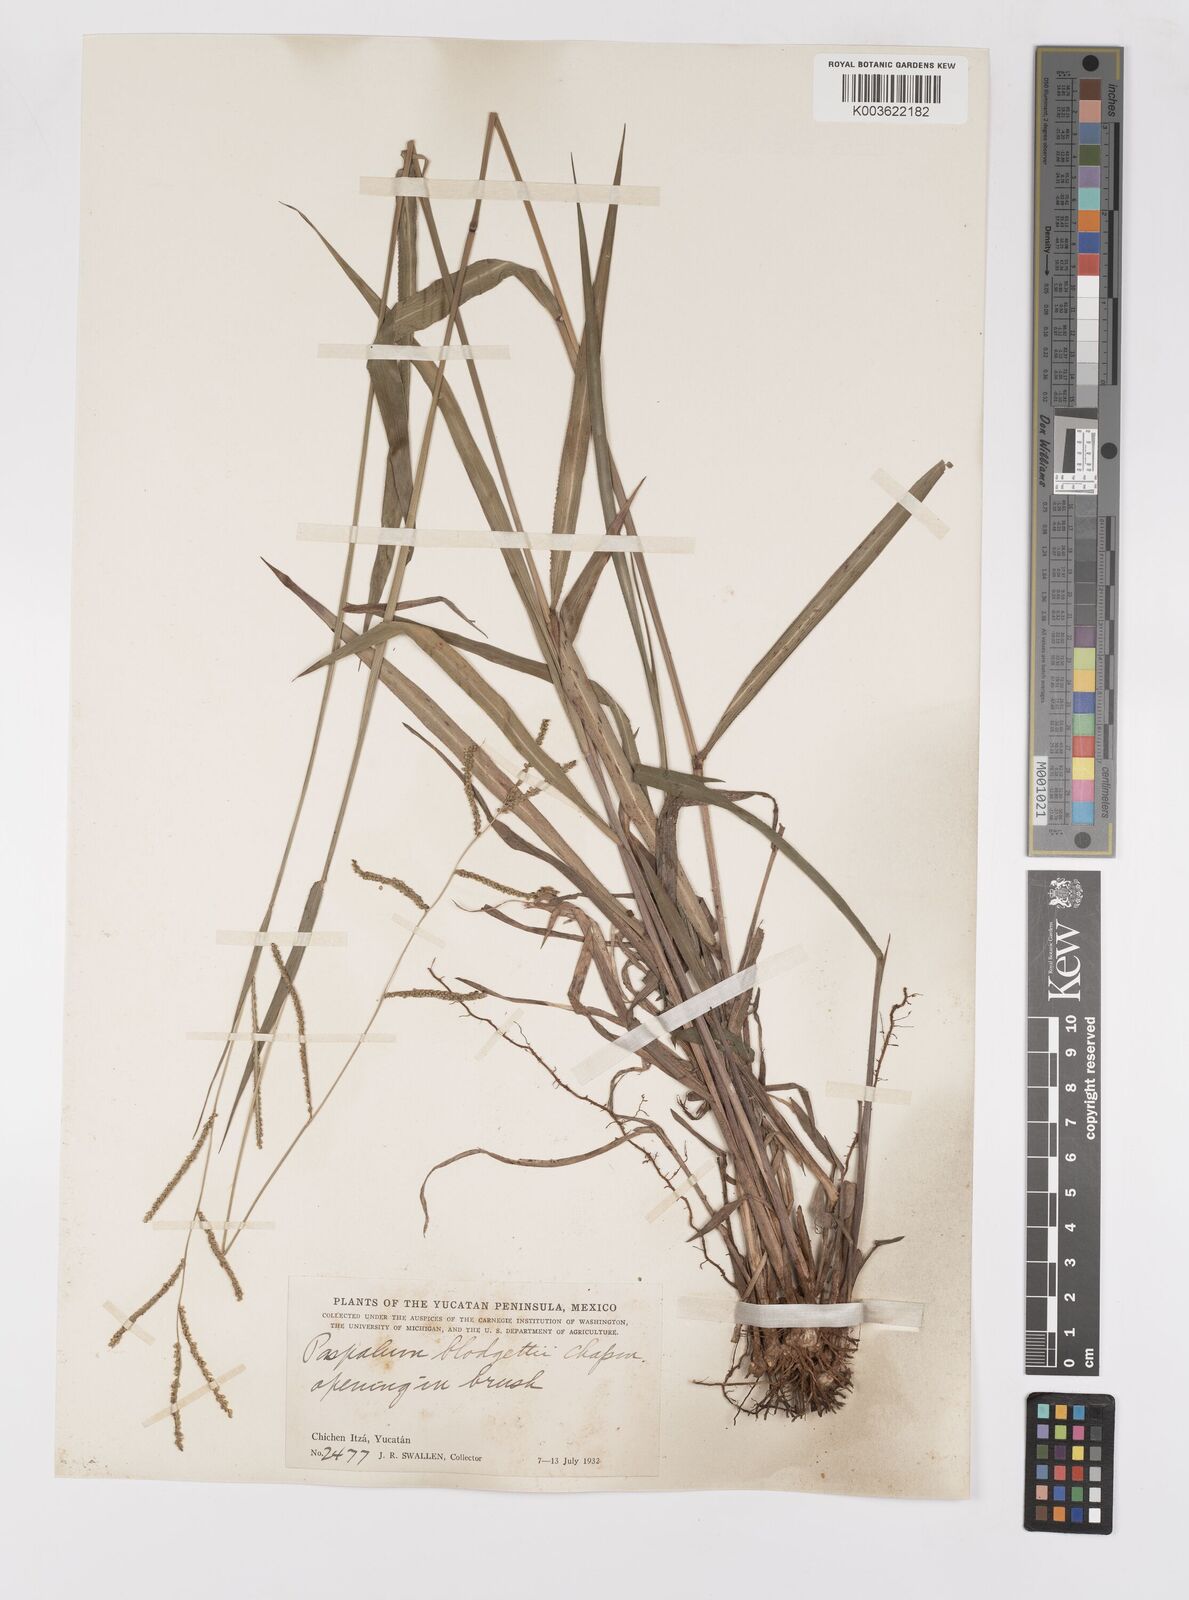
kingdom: Plantae
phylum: Tracheophyta
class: Liliopsida
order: Poales
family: Poaceae
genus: Paspalum
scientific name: Paspalum blodgettii
